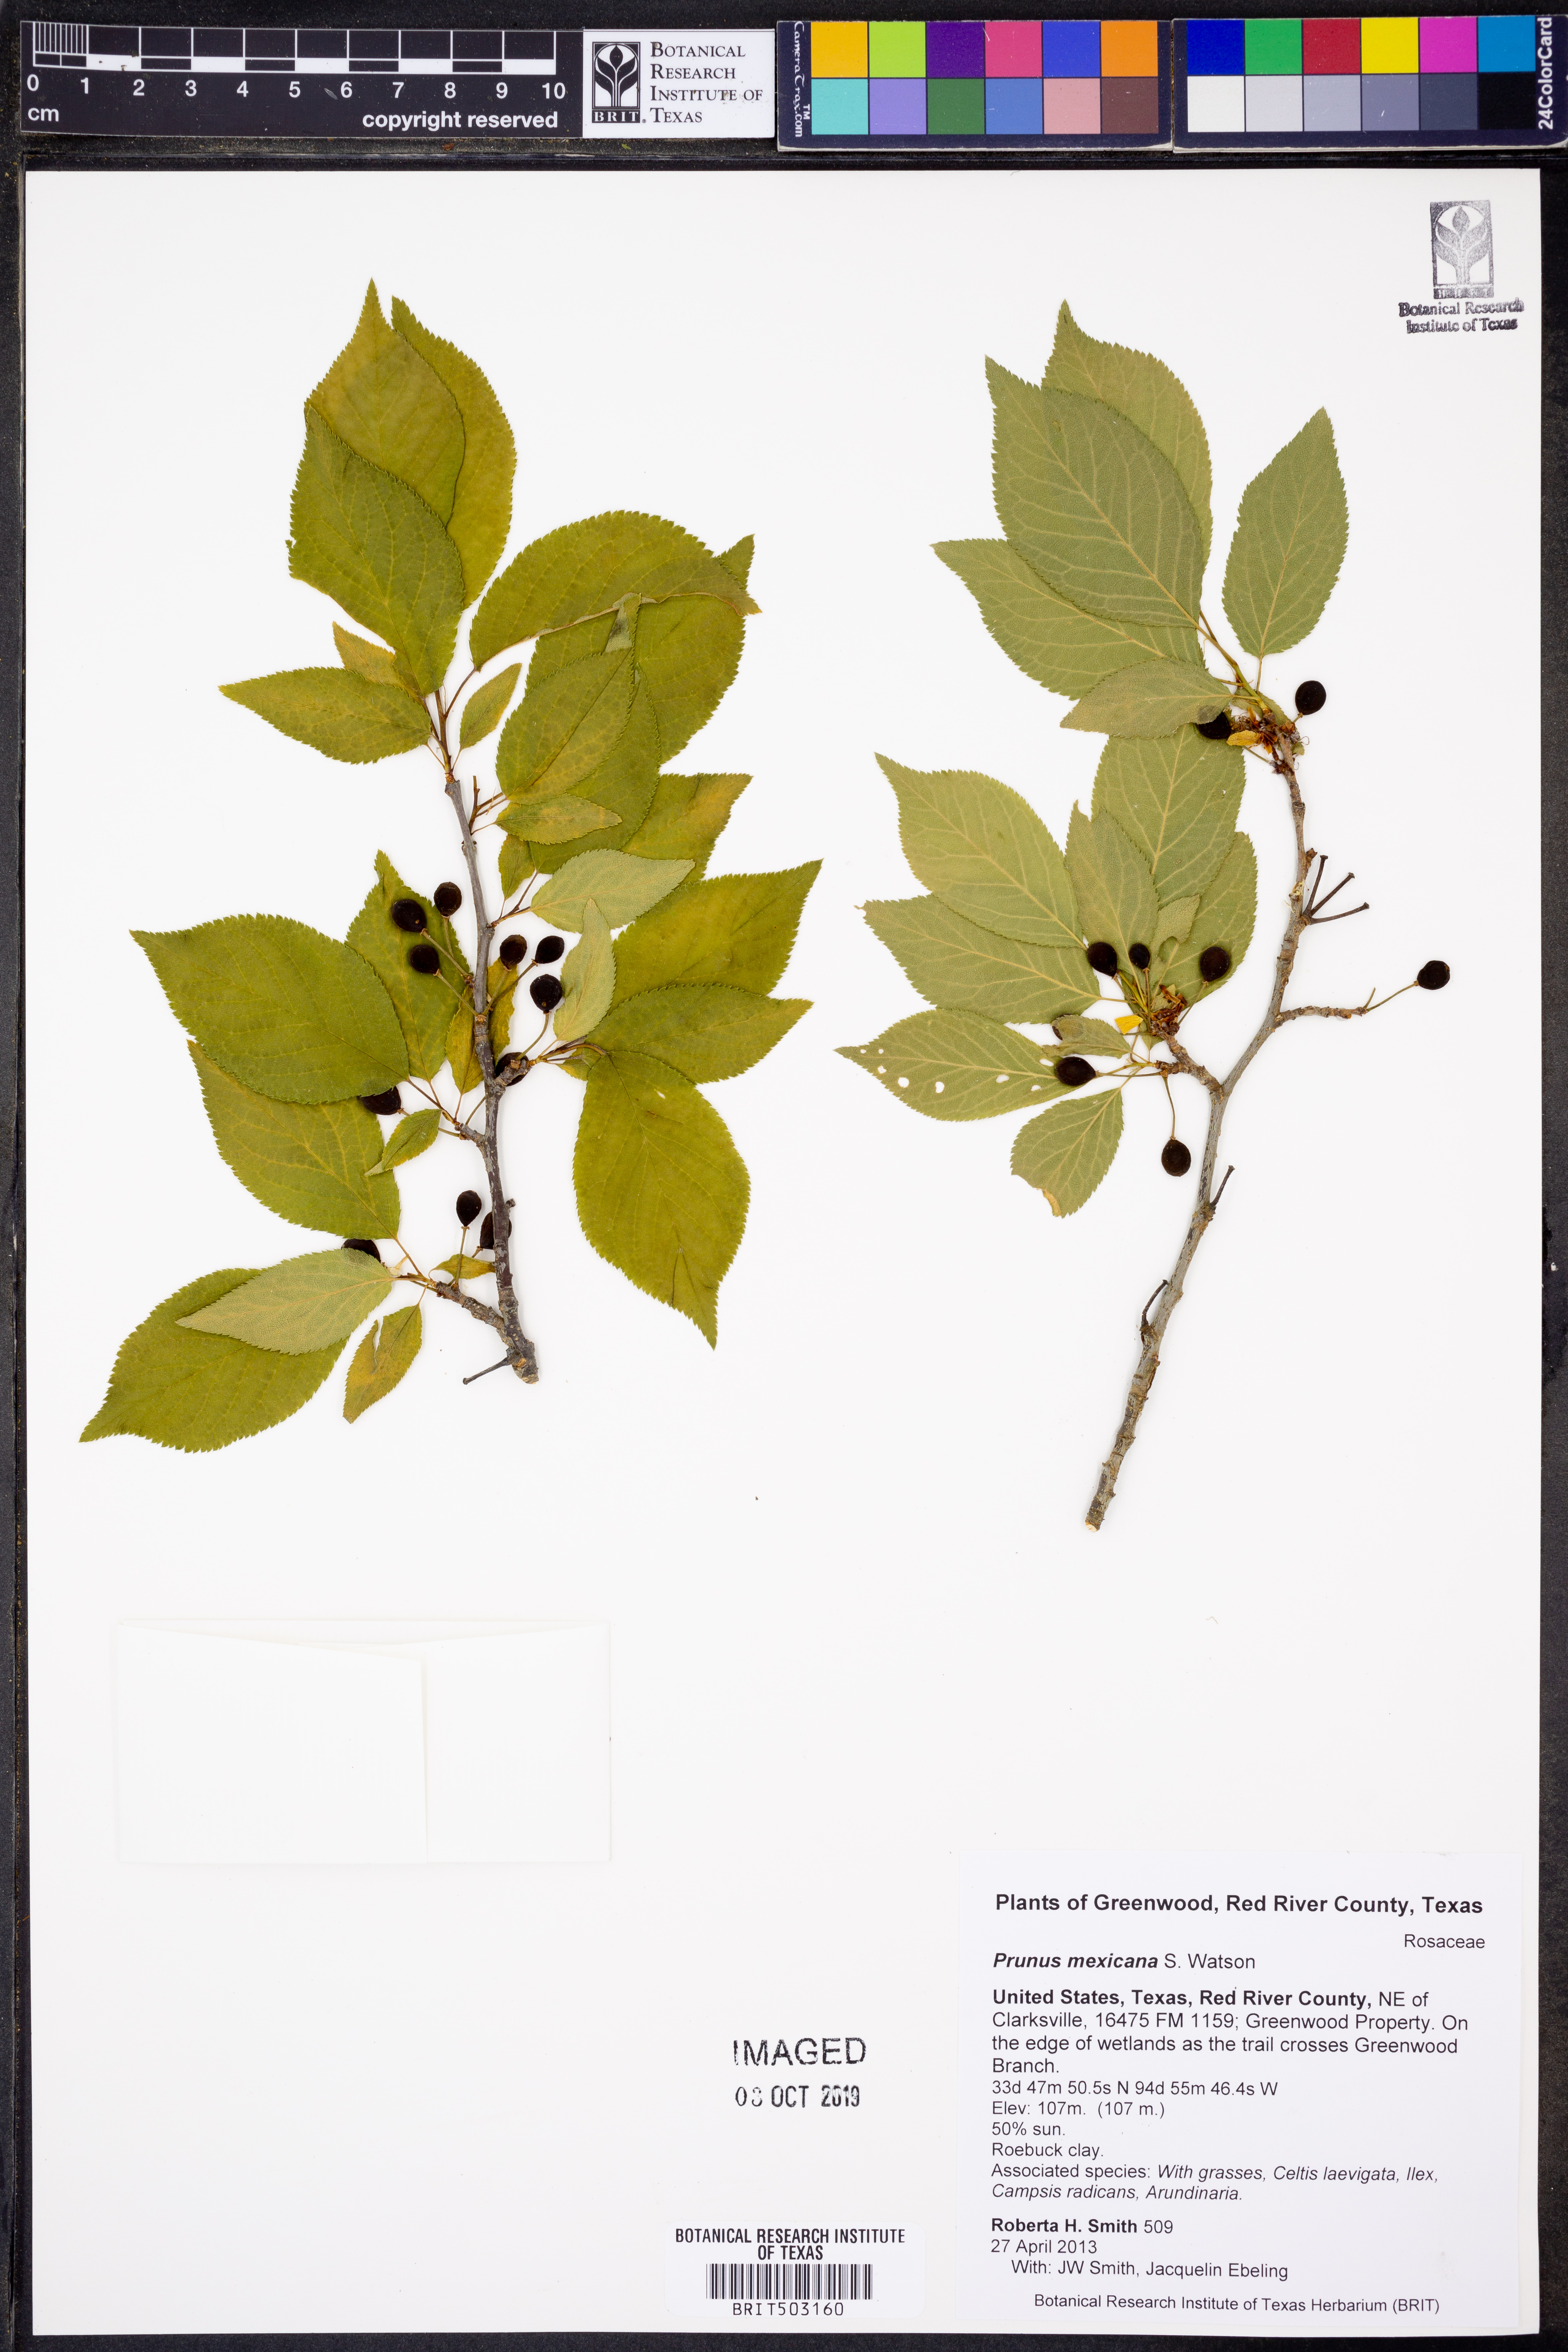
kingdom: Plantae
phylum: Tracheophyta
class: Magnoliopsida
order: Rosales
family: Rosaceae
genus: Prunus
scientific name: Prunus mexicana
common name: Mexican plum
